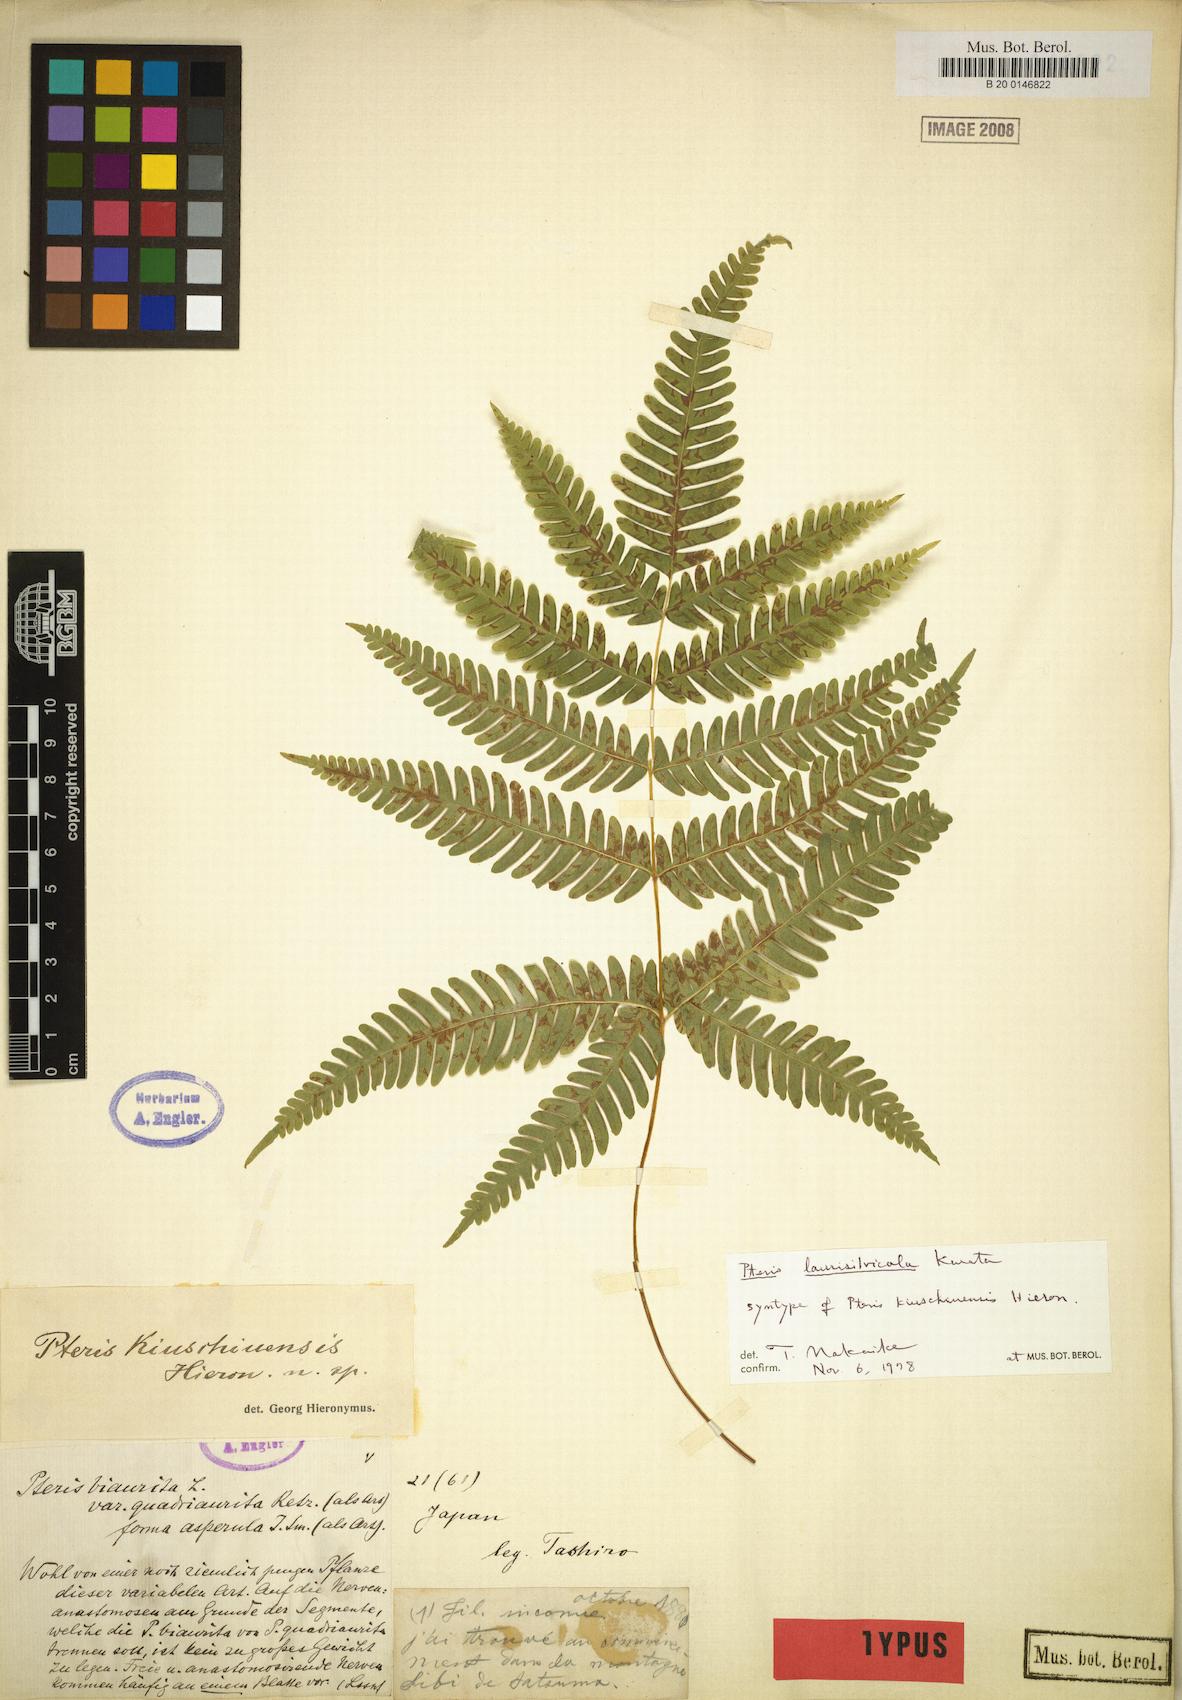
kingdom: Plantae
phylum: Tracheophyta
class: Polypodiopsida
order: Polypodiales
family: Pteridaceae
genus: Pteris
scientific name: Pteris kiuschiuensis
